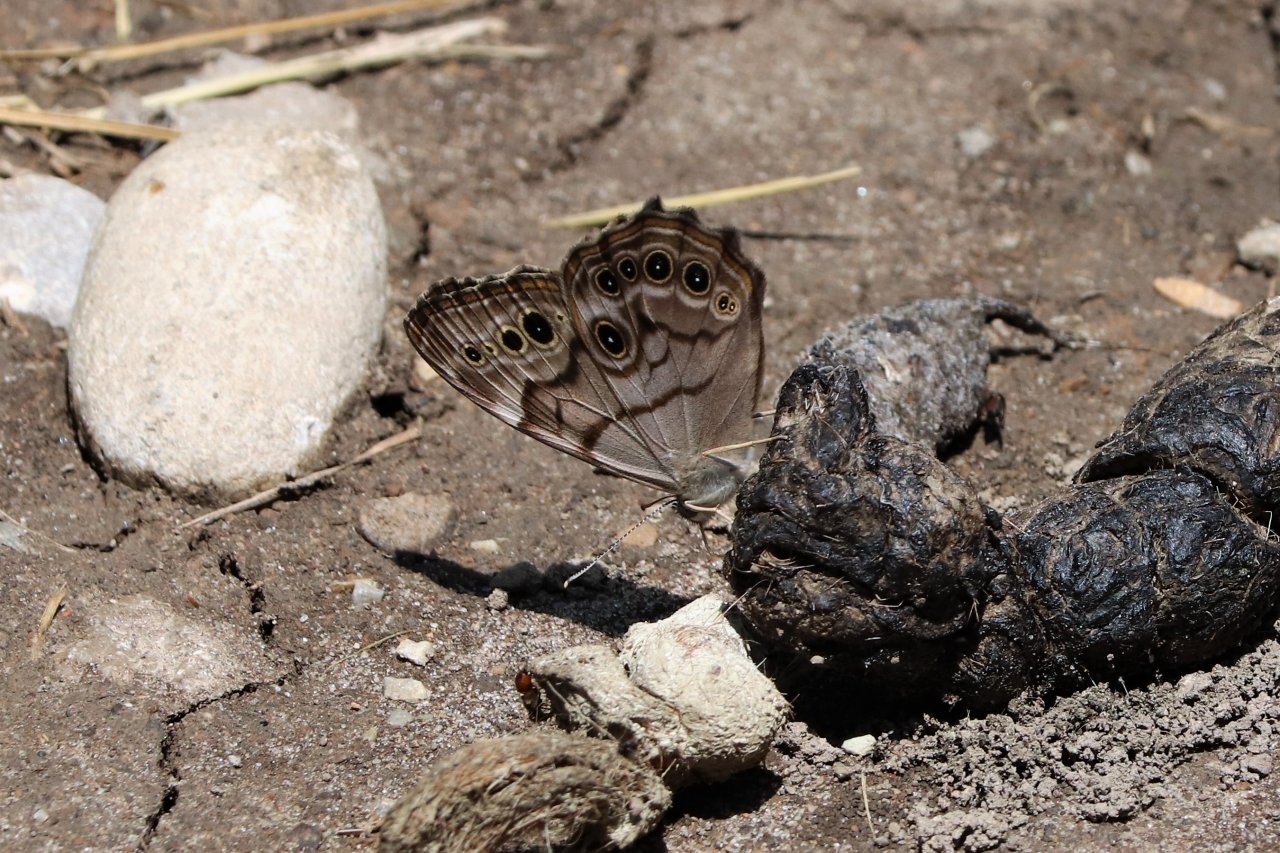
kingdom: Animalia
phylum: Arthropoda
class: Insecta
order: Lepidoptera
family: Nymphalidae
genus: Lethe
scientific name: Lethe anthedon
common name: Northern Pearly-Eye
